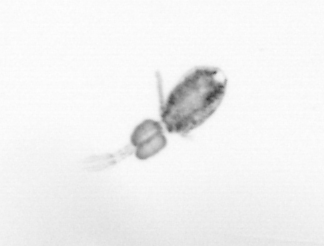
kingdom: Animalia
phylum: Arthropoda
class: Copepoda
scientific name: Copepoda
